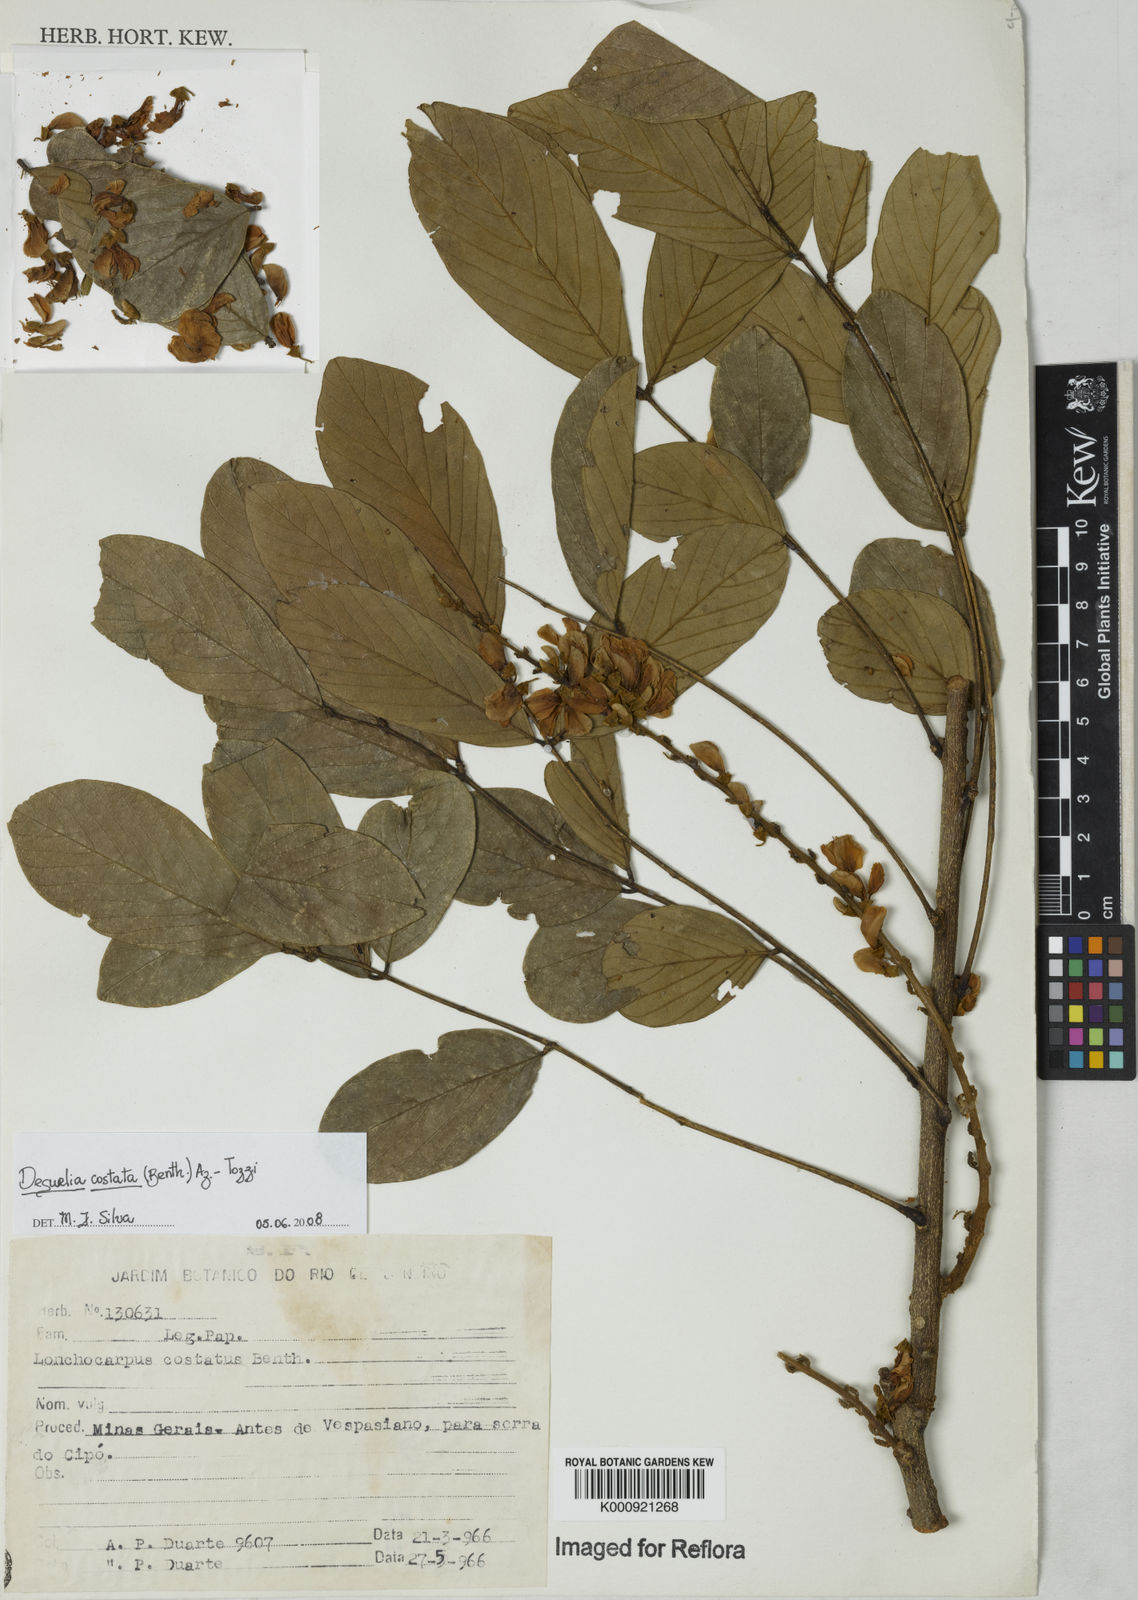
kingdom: Plantae
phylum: Tracheophyta
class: Magnoliopsida
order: Fabales
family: Fabaceae
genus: Deguelia
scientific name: Deguelia costata
